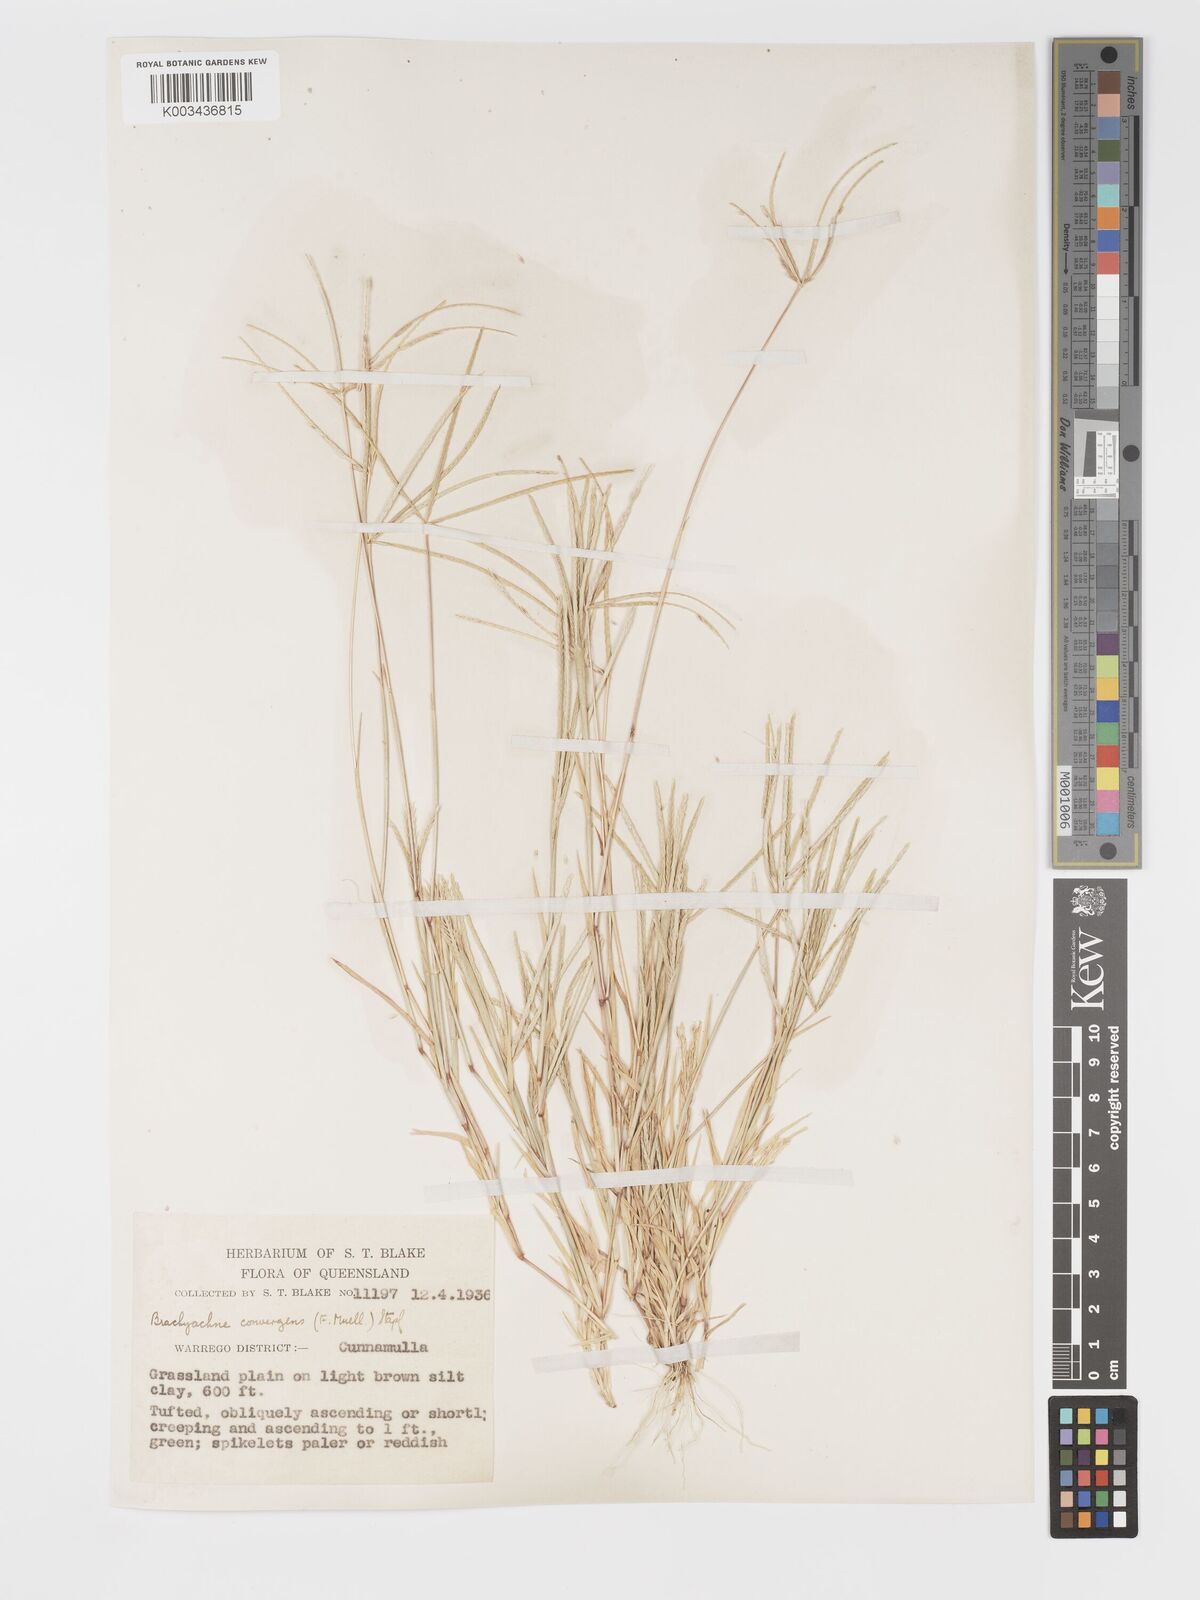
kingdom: Plantae
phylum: Tracheophyta
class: Liliopsida
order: Poales
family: Poaceae
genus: Cynodon
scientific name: Cynodon convergens
